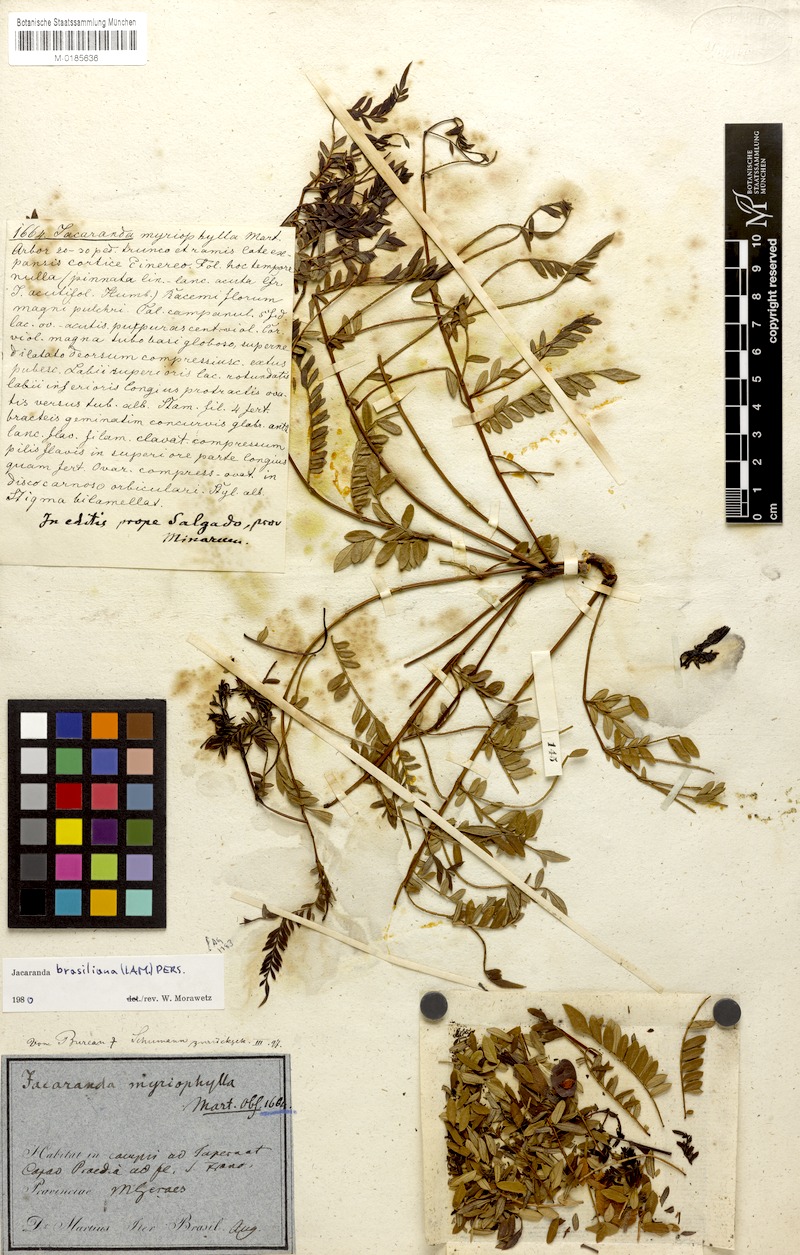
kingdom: Plantae
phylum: Tracheophyta
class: Magnoliopsida
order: Lamiales
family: Bignoniaceae
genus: Jacaranda
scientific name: Jacaranda brasiliana
